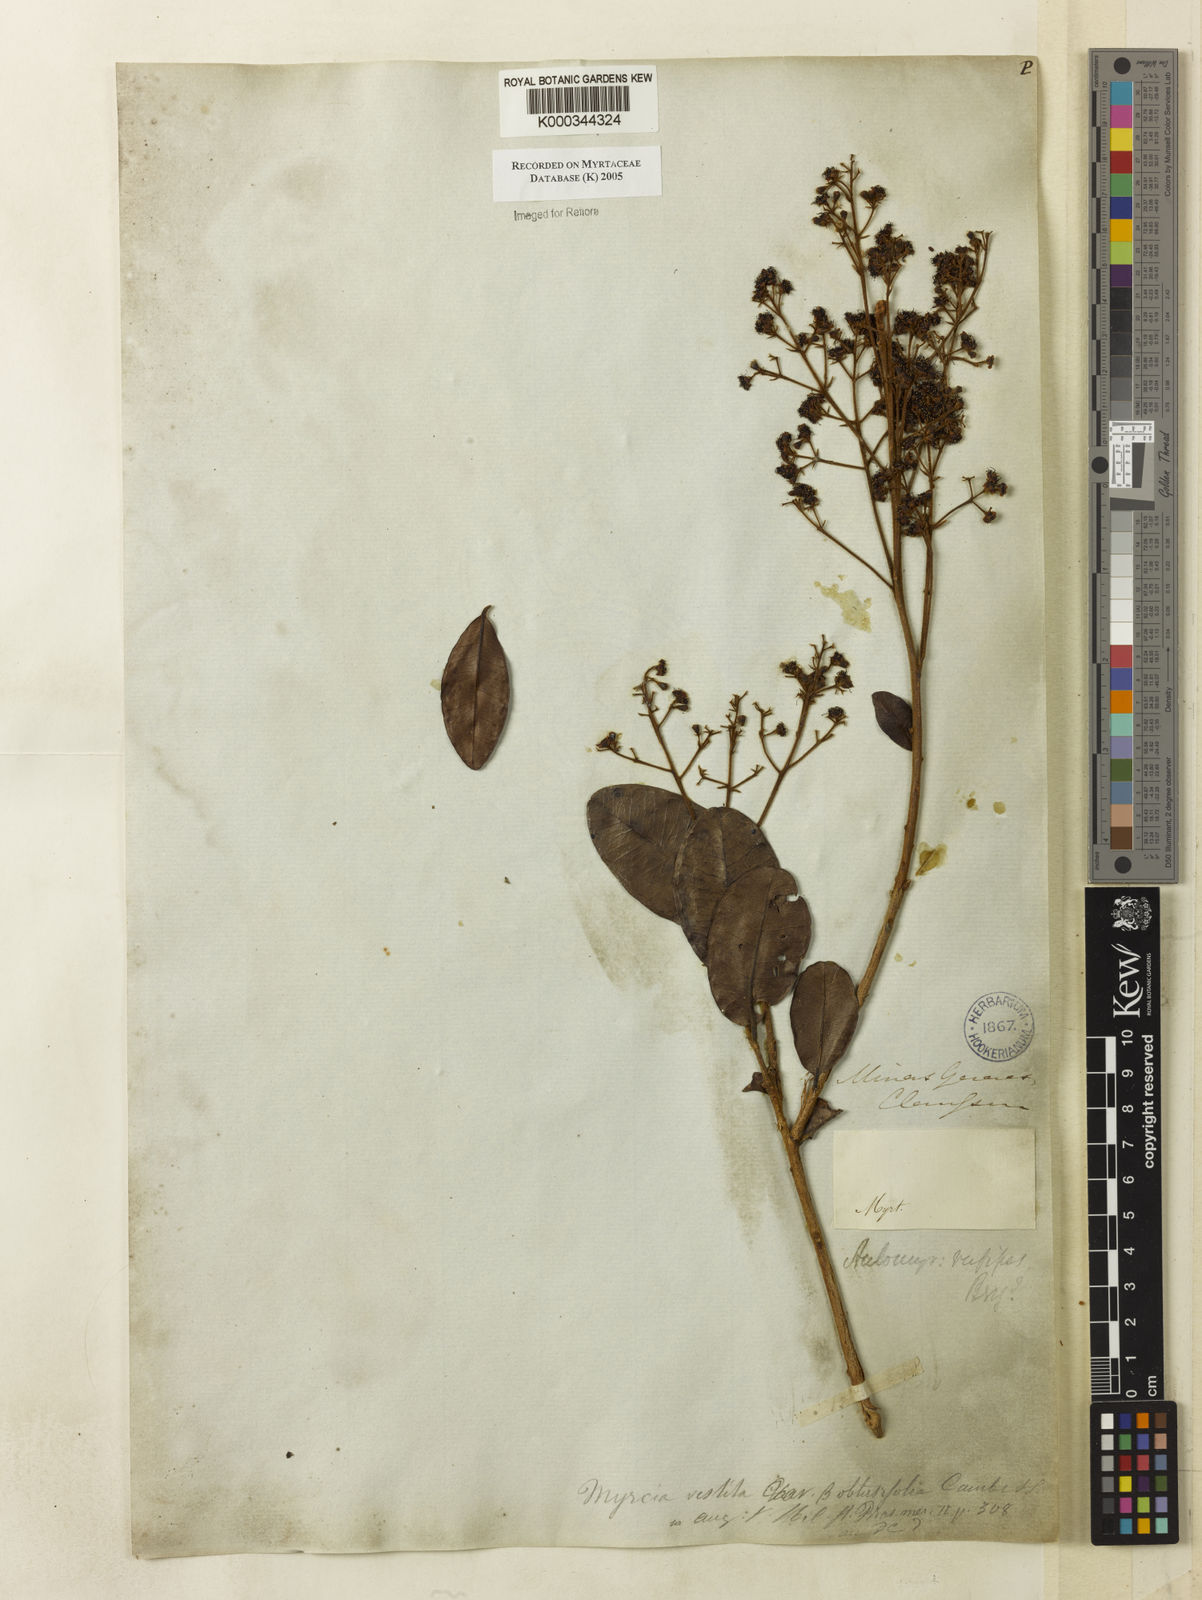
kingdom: Plantae
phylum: Tracheophyta
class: Magnoliopsida
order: Myrtales
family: Myrtaceae
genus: Myrcia
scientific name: Myrcia rufipes
